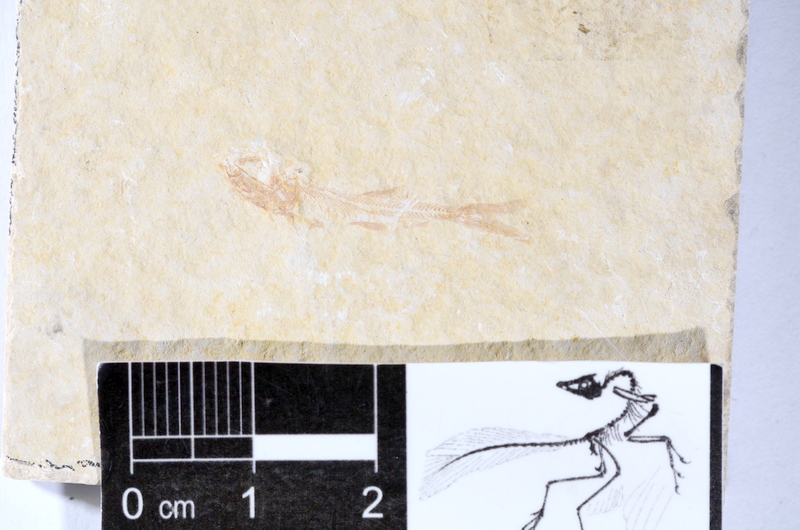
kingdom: Animalia
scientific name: Animalia
